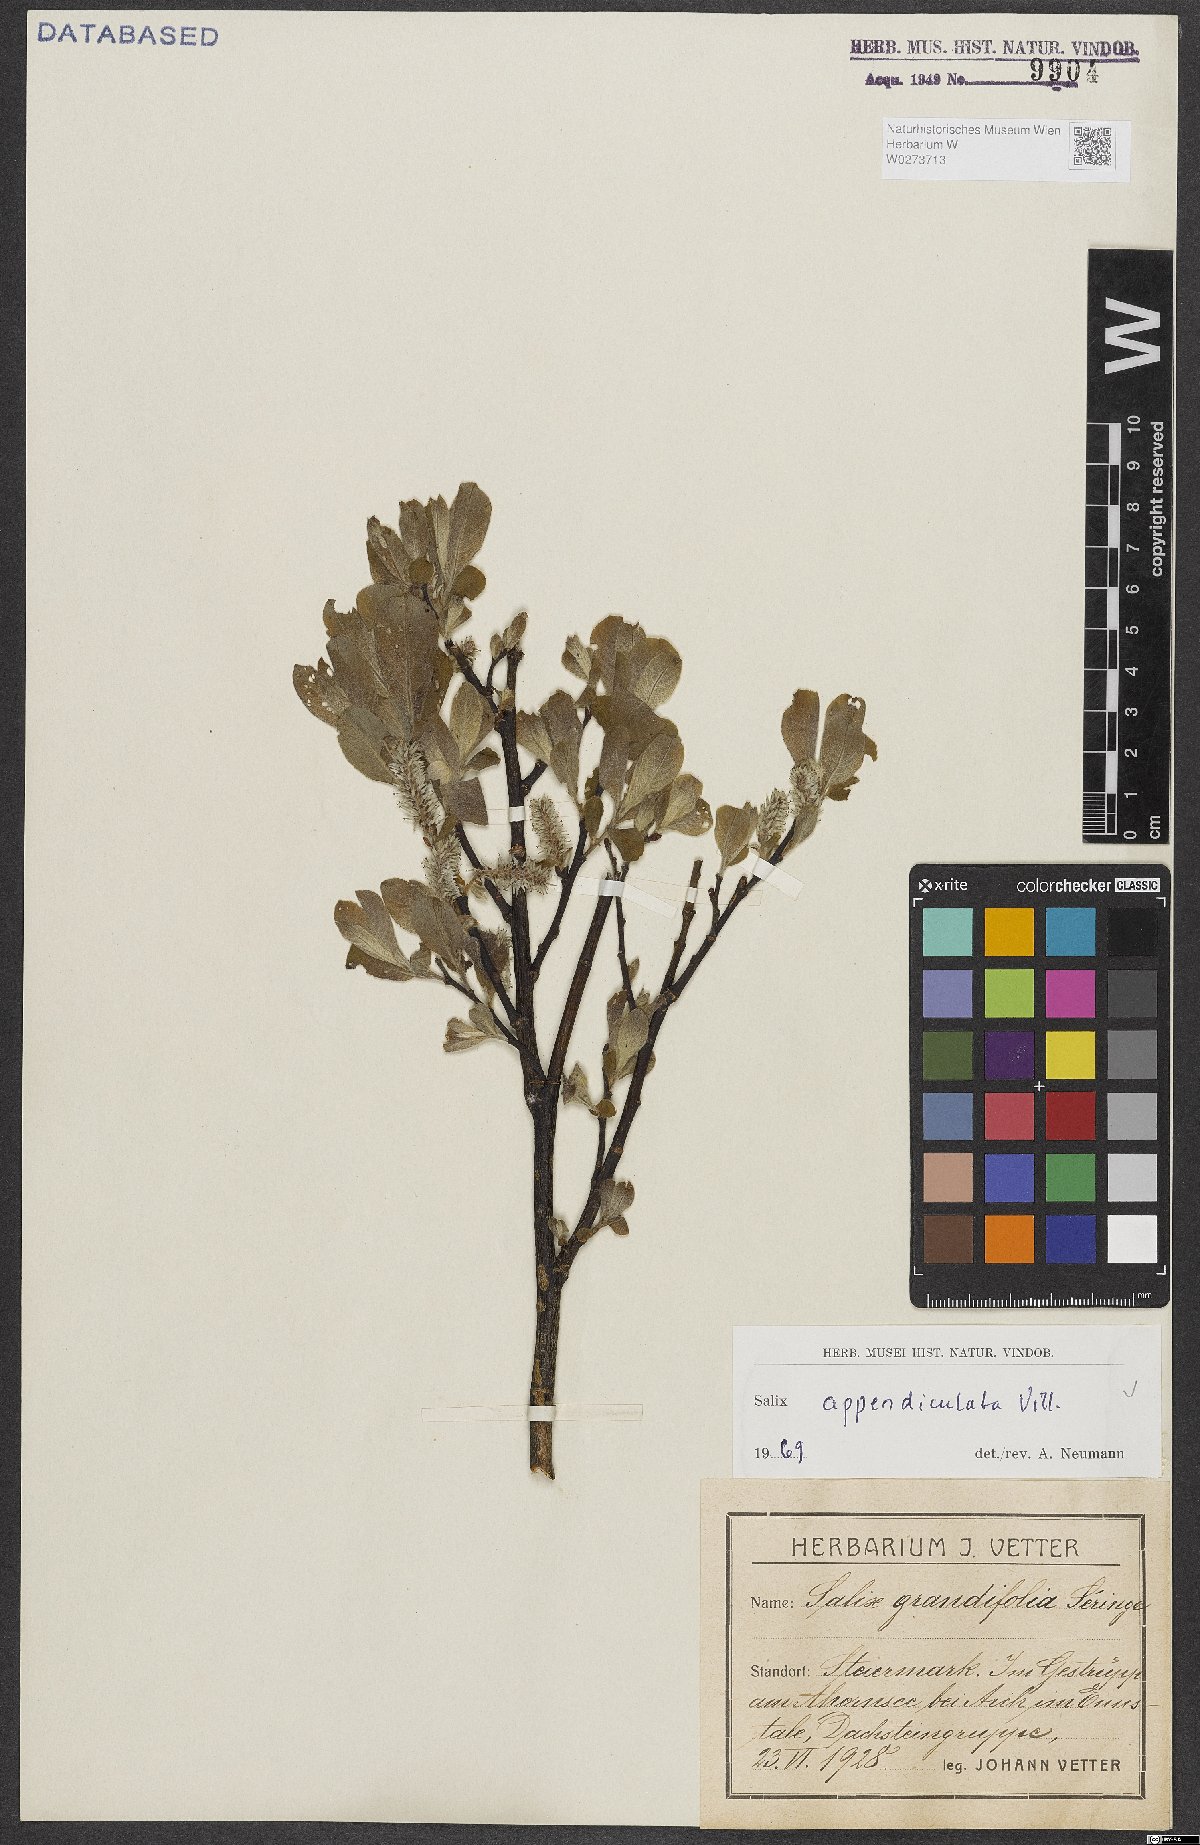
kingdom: Plantae
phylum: Tracheophyta
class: Magnoliopsida
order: Malpighiales
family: Salicaceae
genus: Salix
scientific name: Salix appendiculata
